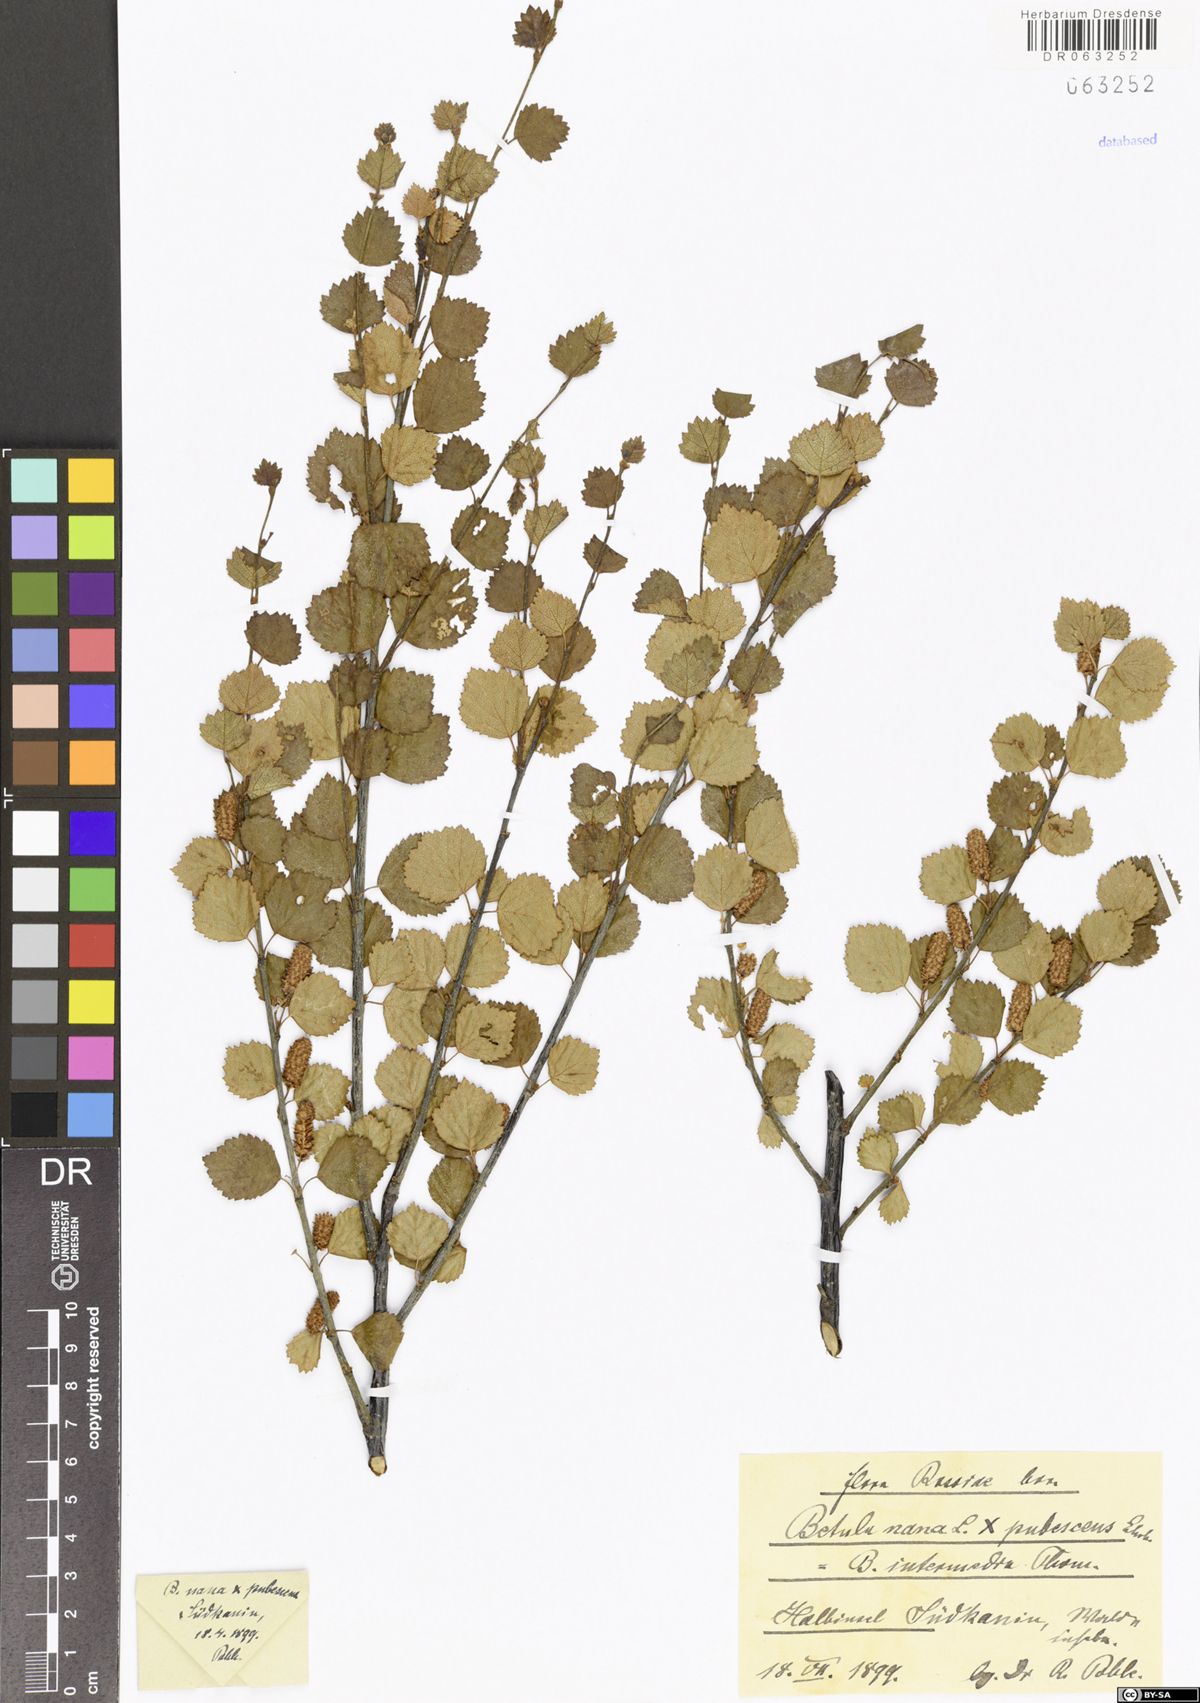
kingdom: Plantae
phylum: Tracheophyta
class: Magnoliopsida
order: Fagales
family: Betulaceae
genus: Betula
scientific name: Betula intermedia
